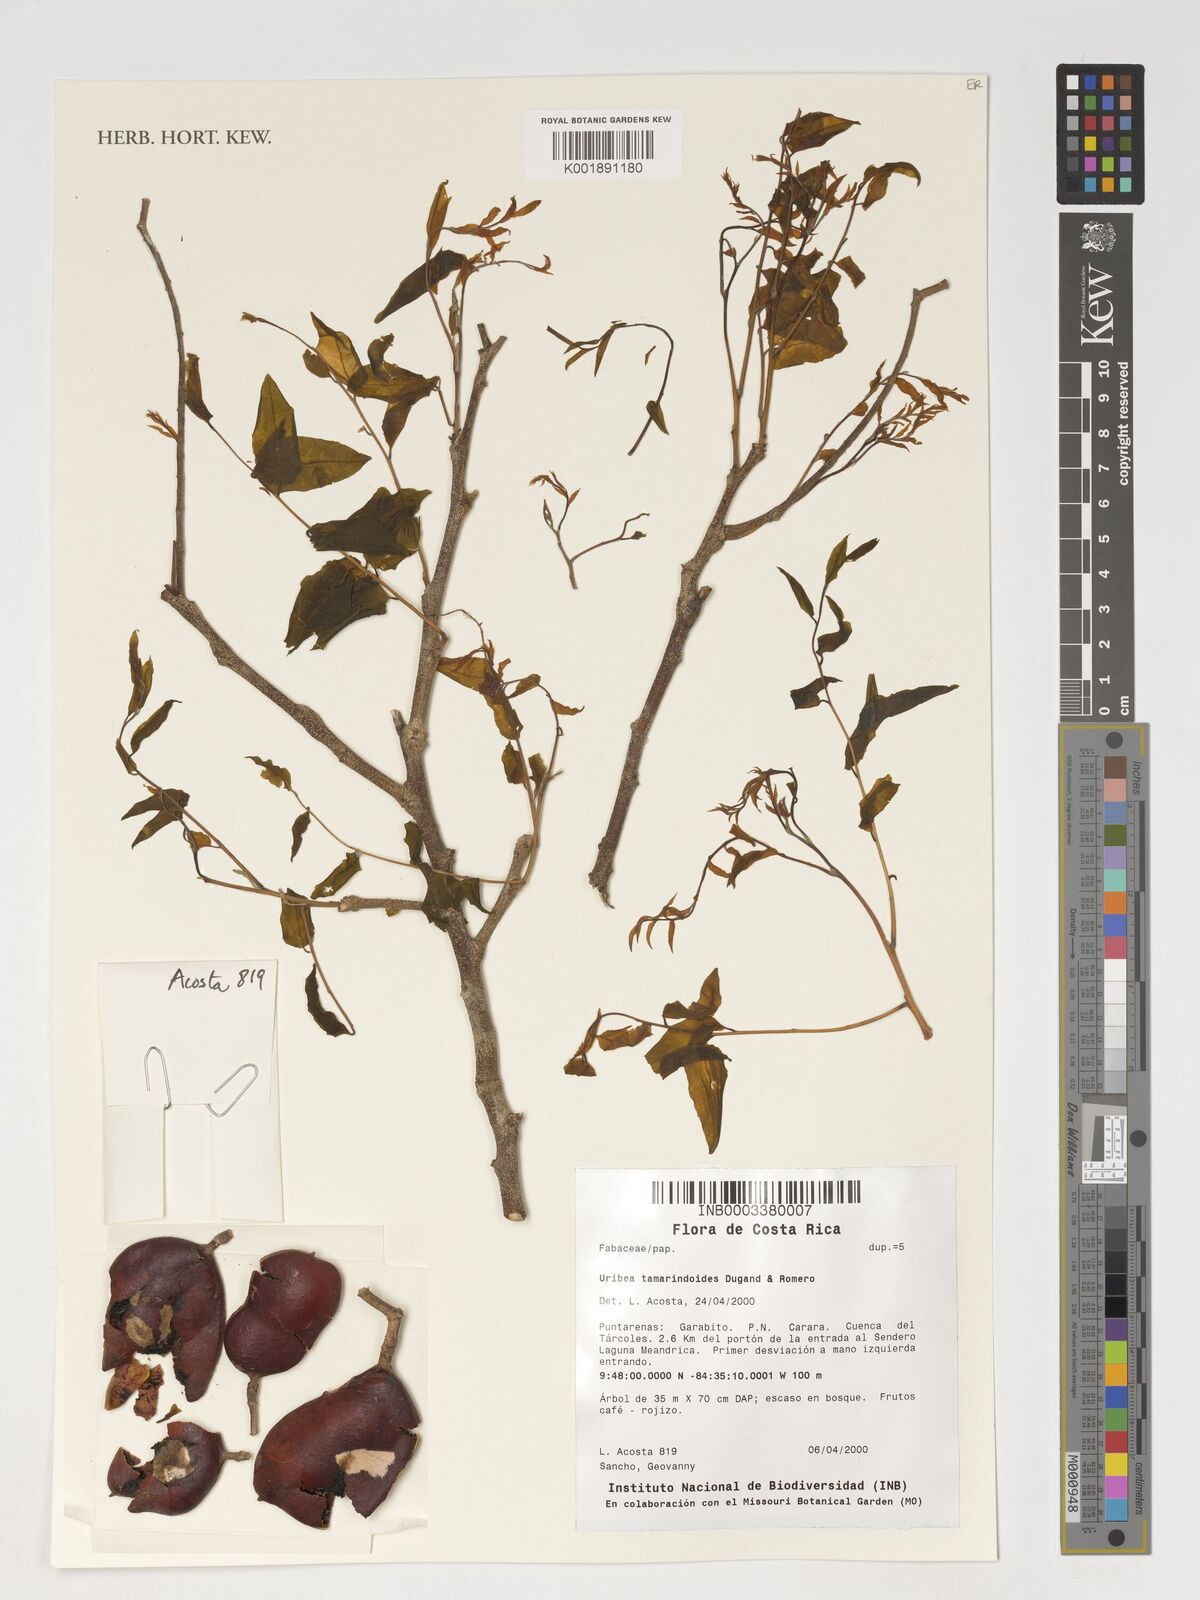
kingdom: Plantae
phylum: Tracheophyta
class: Magnoliopsida
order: Fabales
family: Fabaceae
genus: Uribea
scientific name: Uribea tamarindoides
